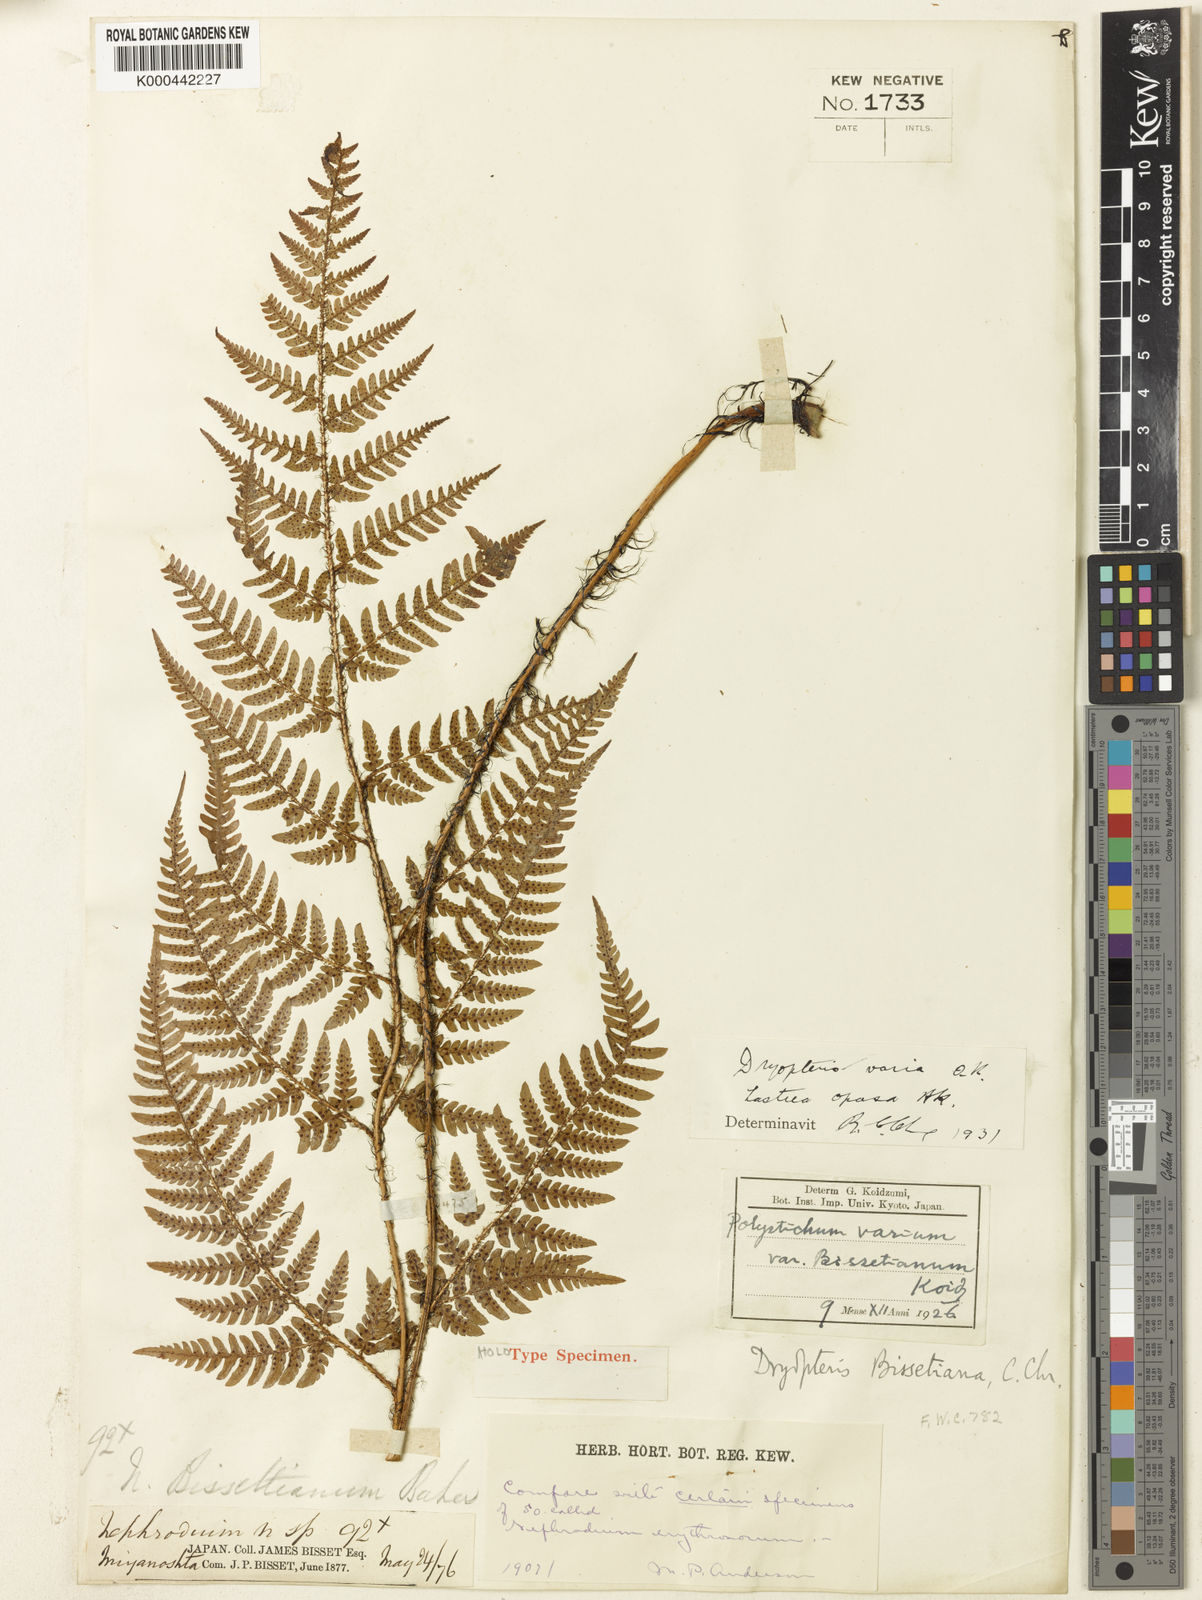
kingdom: Plantae
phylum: Tracheophyta
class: Polypodiopsida
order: Polypodiales
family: Dryopteridaceae
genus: Dryopteris
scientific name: Dryopteris bissetiana
